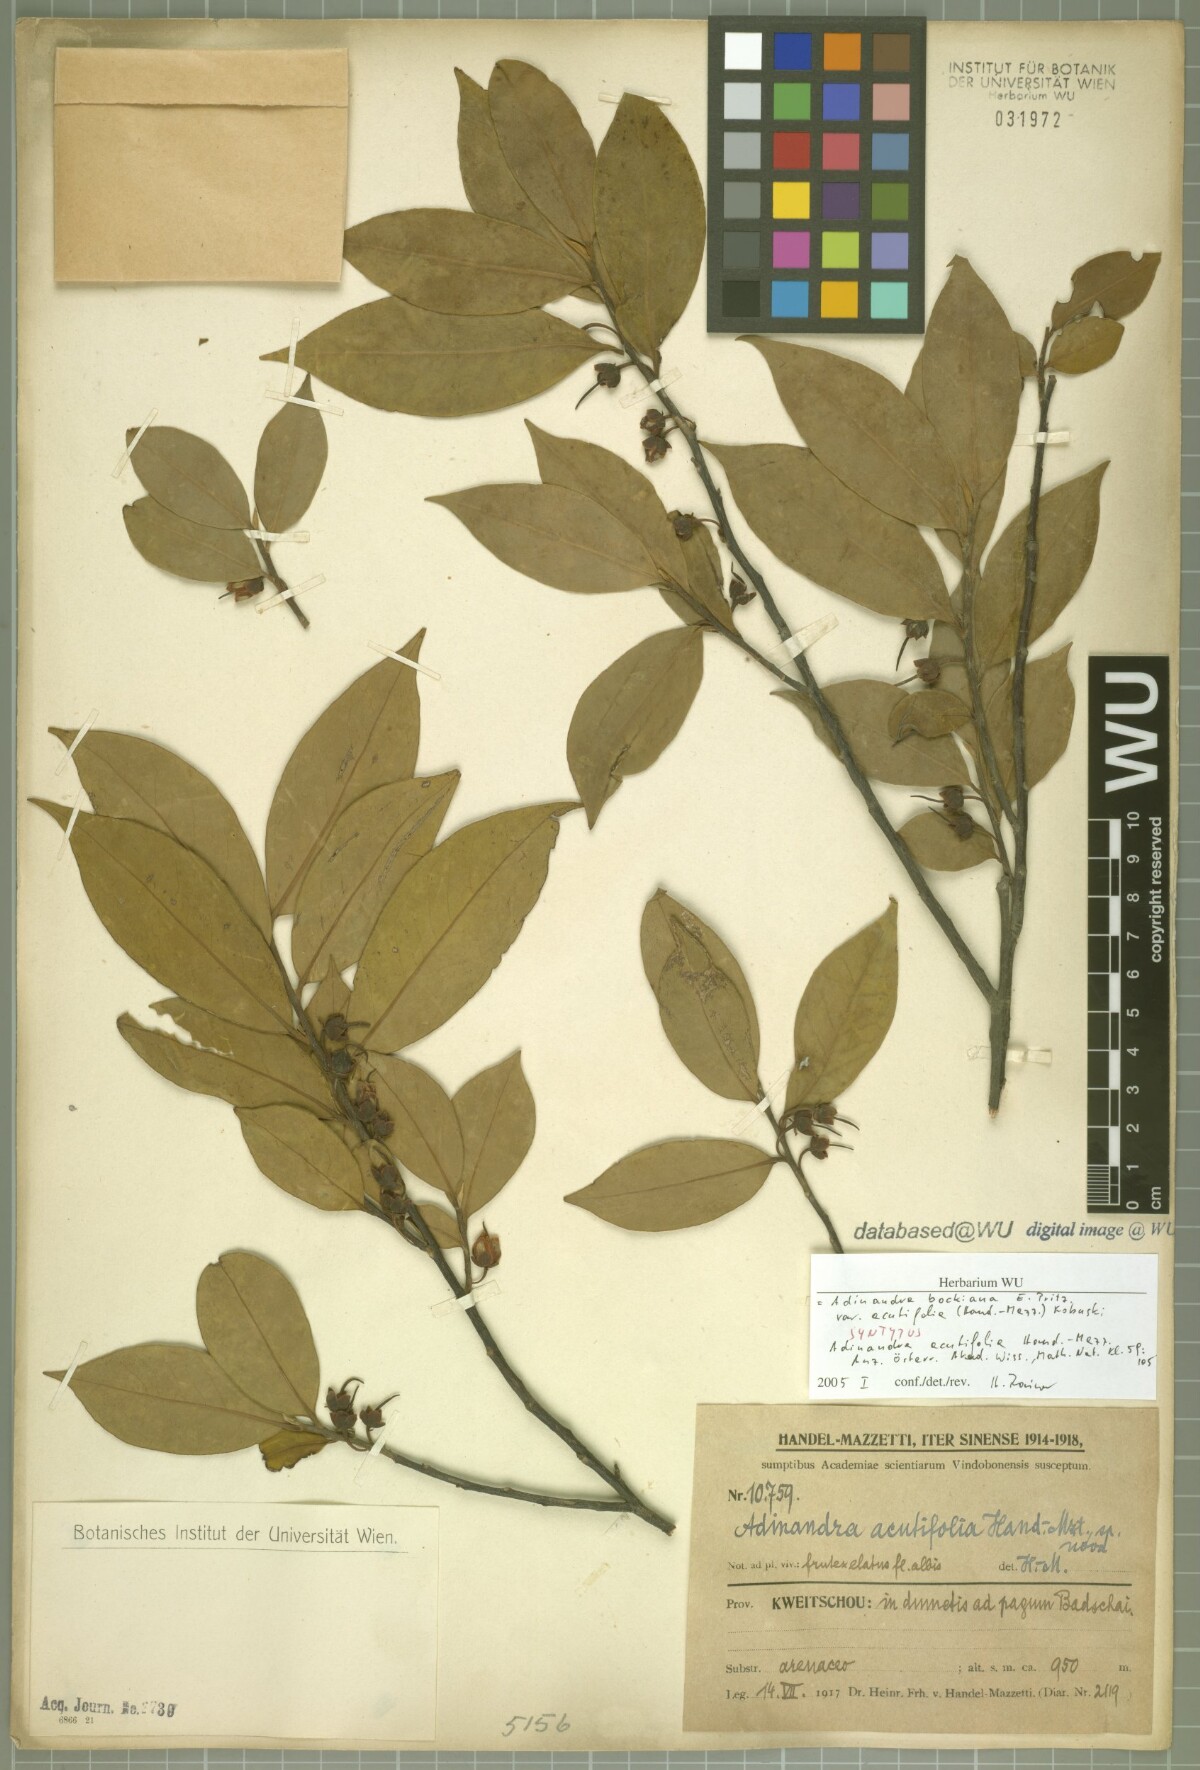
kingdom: Plantae
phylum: Tracheophyta
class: Magnoliopsida
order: Ericales
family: Pentaphylacaceae
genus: Adinandra
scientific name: Adinandra bockiana
